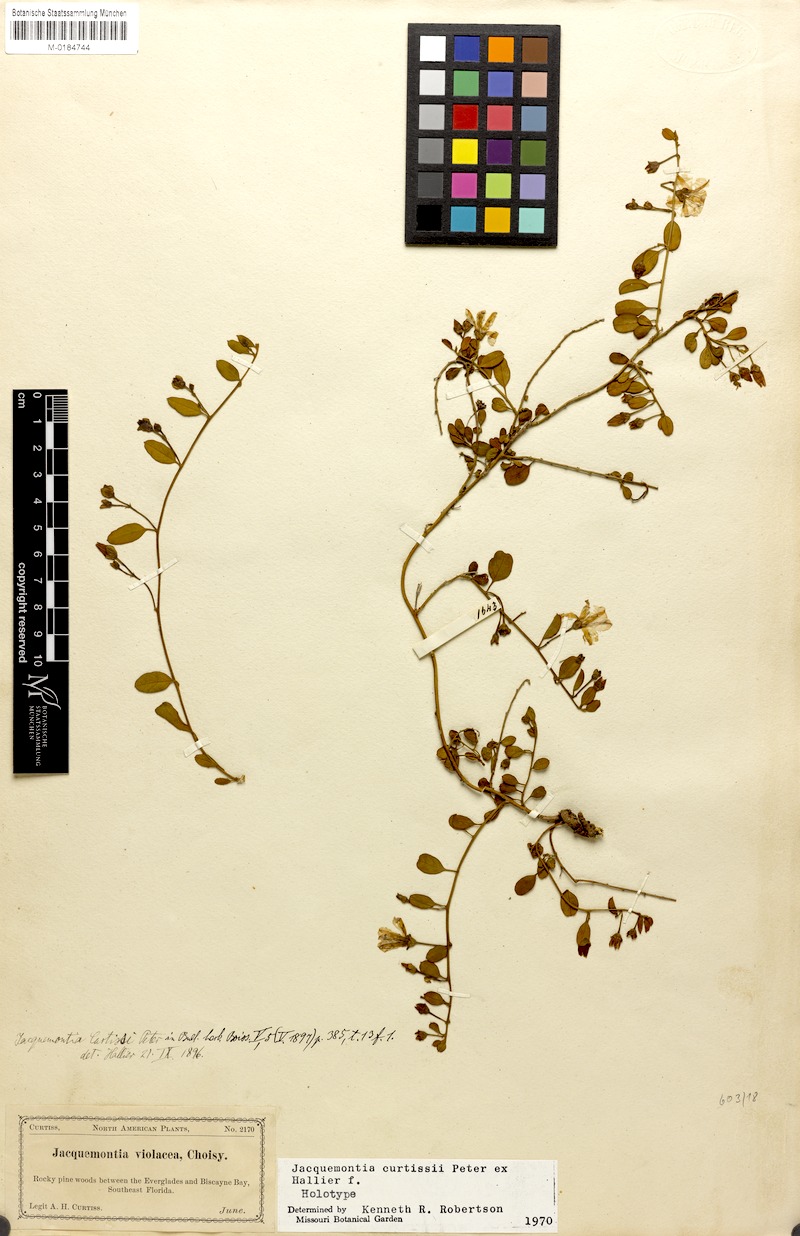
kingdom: Plantae
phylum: Tracheophyta
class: Magnoliopsida
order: Solanales
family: Convolvulaceae
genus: Jacquemontia
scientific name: Jacquemontia curtisii
